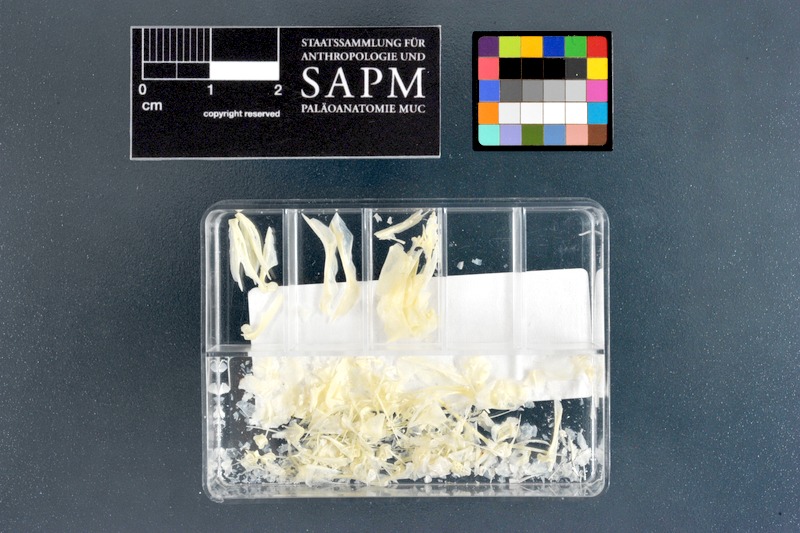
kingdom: Animalia
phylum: Chordata
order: Perciformes
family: Apogonidae
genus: Apogon
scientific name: Apogon imberbis
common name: Cardinal fish
